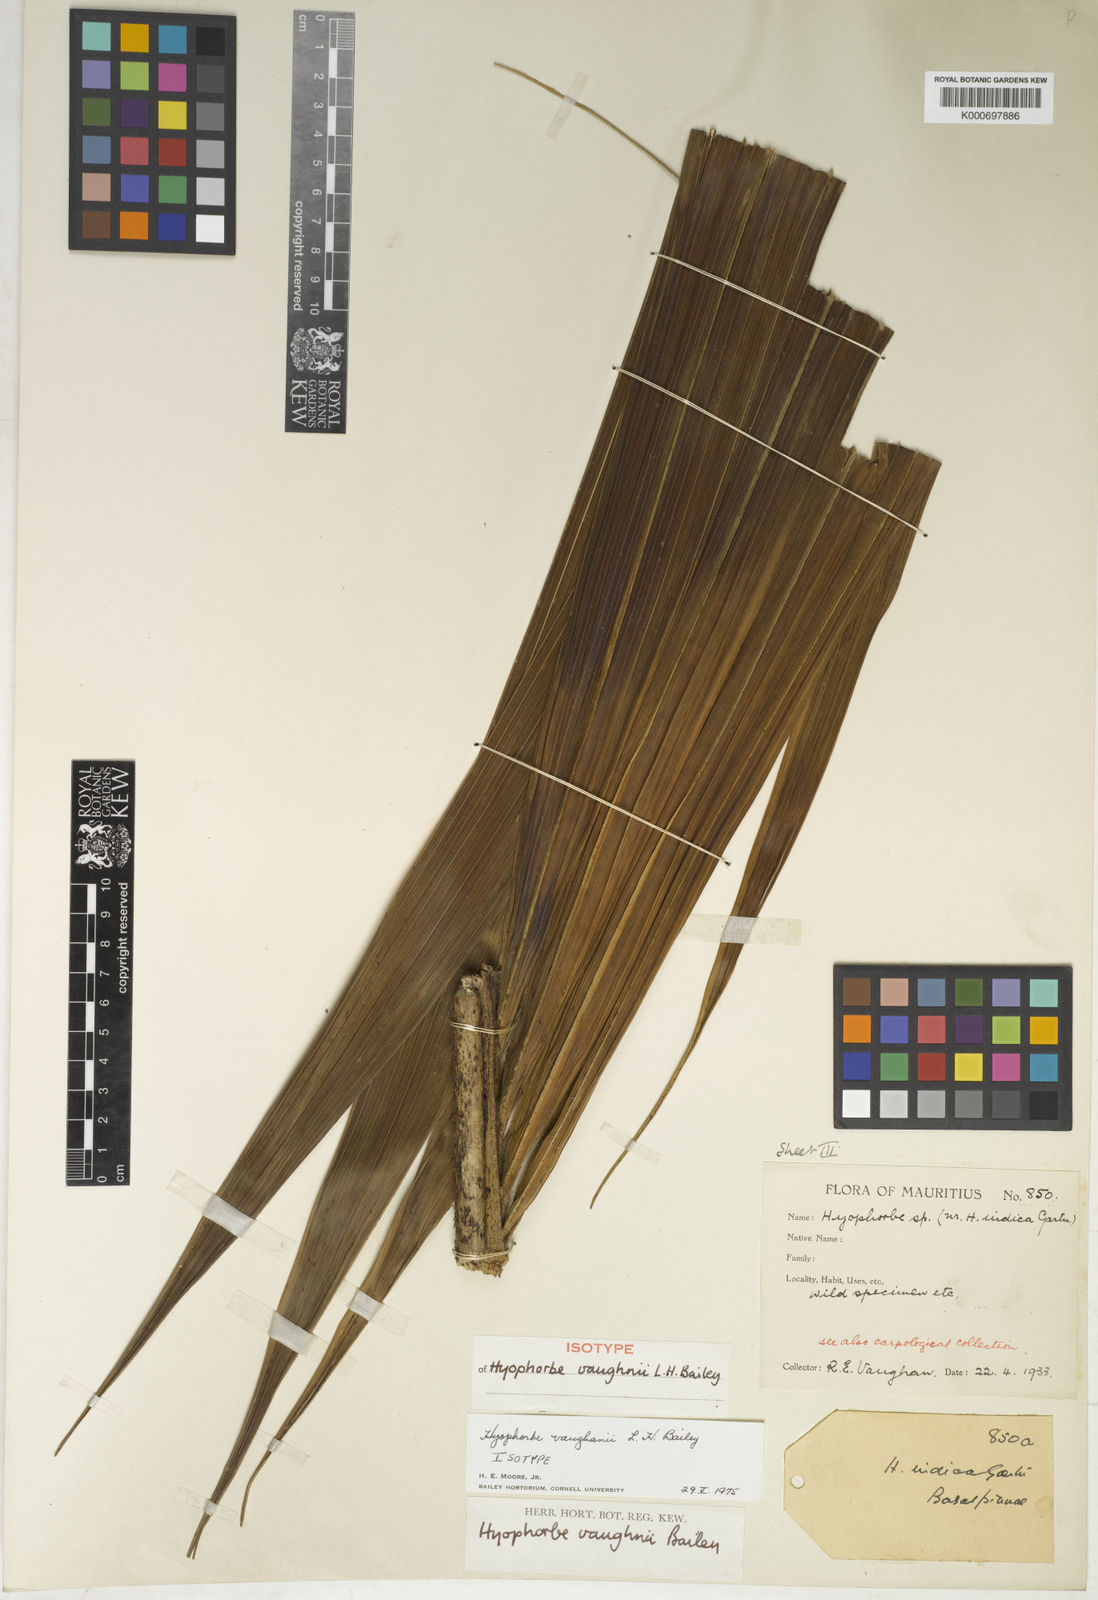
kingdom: Plantae
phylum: Tracheophyta
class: Liliopsida
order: Arecales
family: Arecaceae
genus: Hyophorbe
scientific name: Hyophorbe vaughanii
